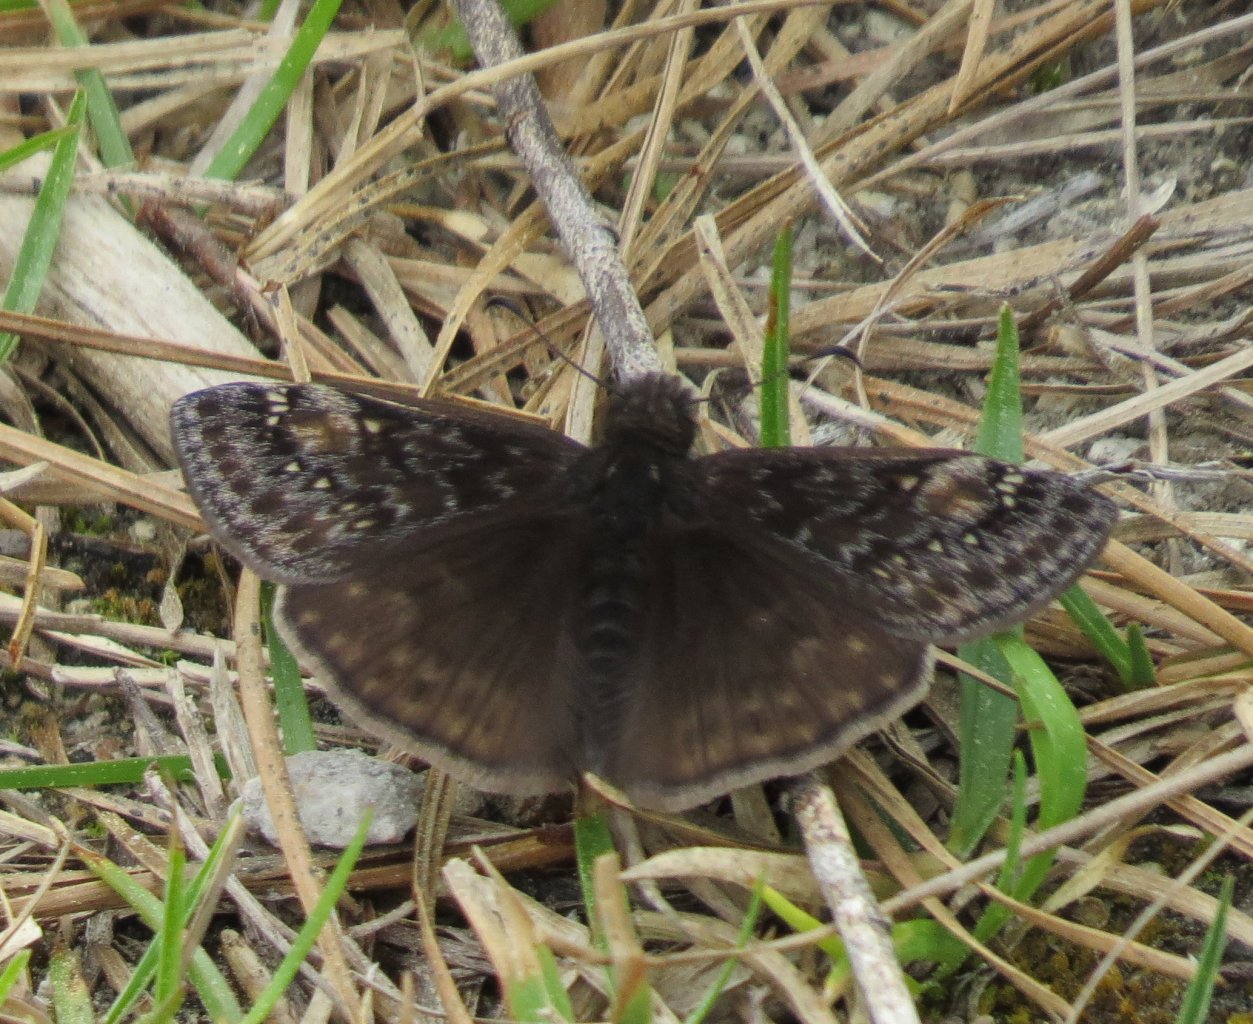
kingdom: Animalia
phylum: Arthropoda
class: Insecta
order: Lepidoptera
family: Hesperiidae
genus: Gesta
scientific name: Gesta
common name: Juvenal's Duskywing
